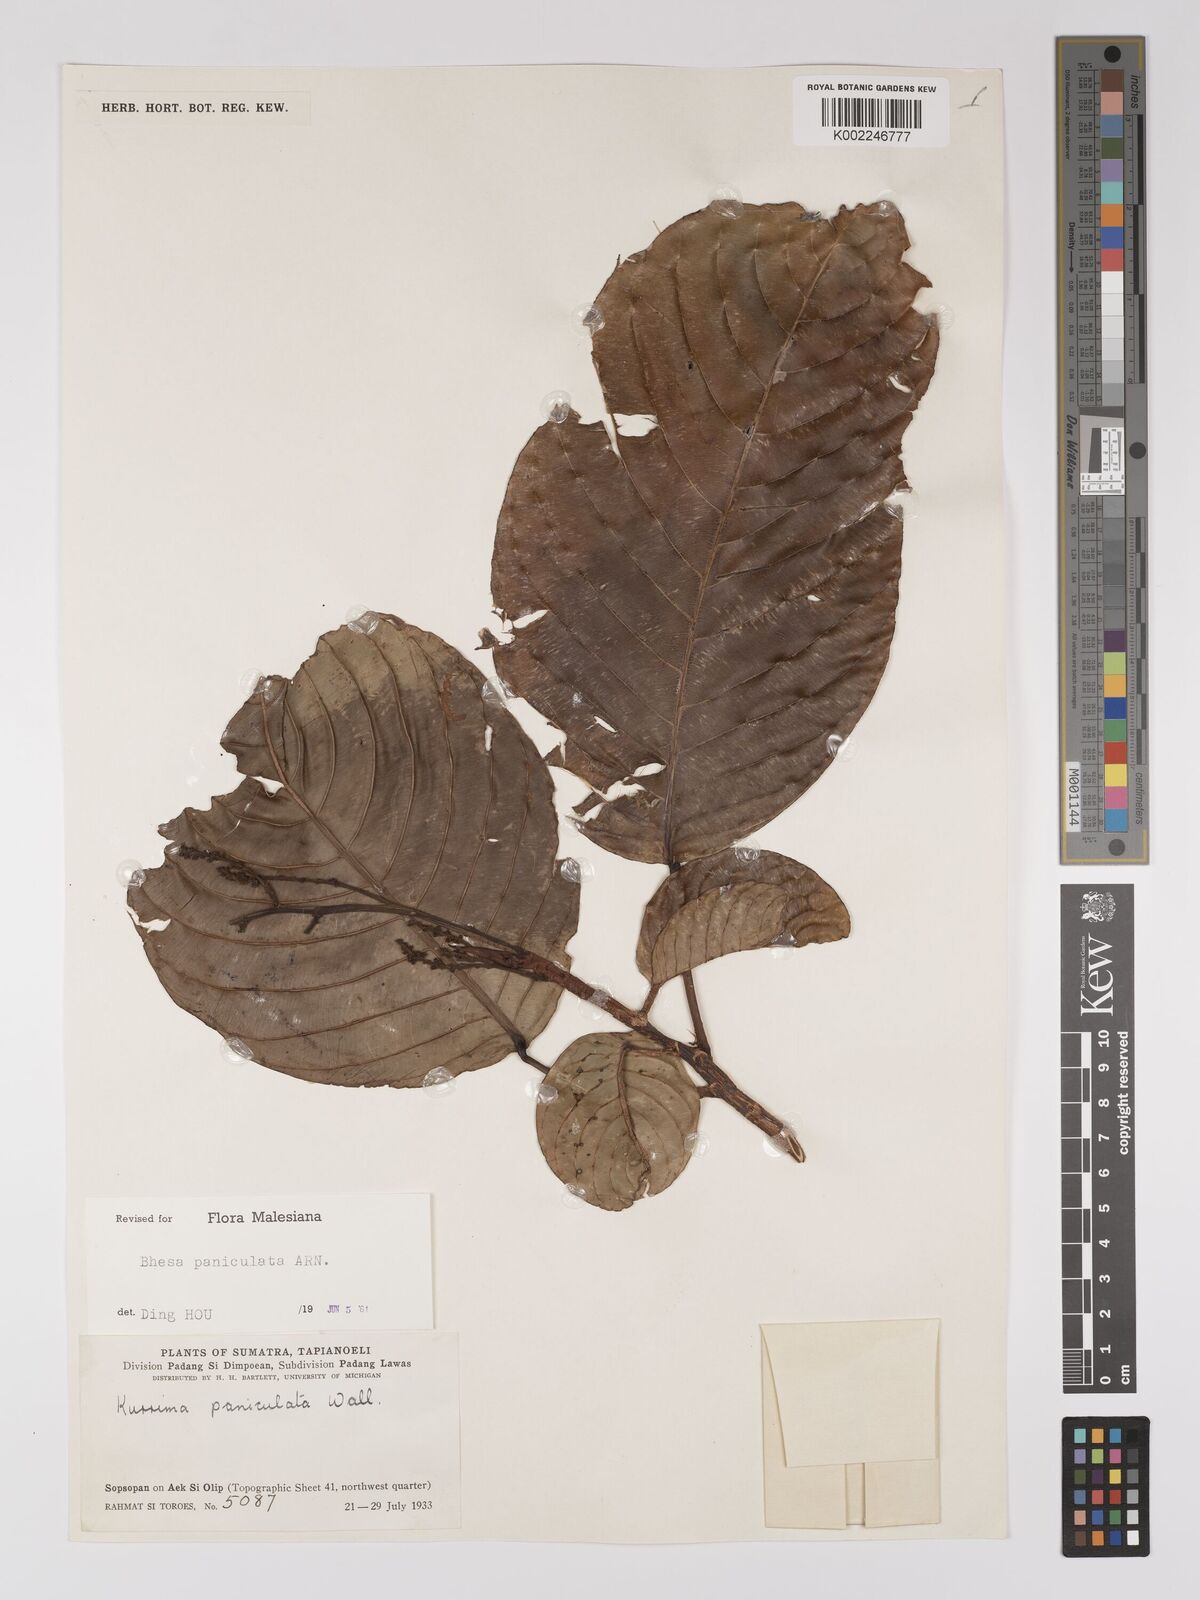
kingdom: Plantae
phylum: Tracheophyta
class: Magnoliopsida
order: Malpighiales
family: Centroplacaceae
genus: Bhesa
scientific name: Bhesa paniculata
